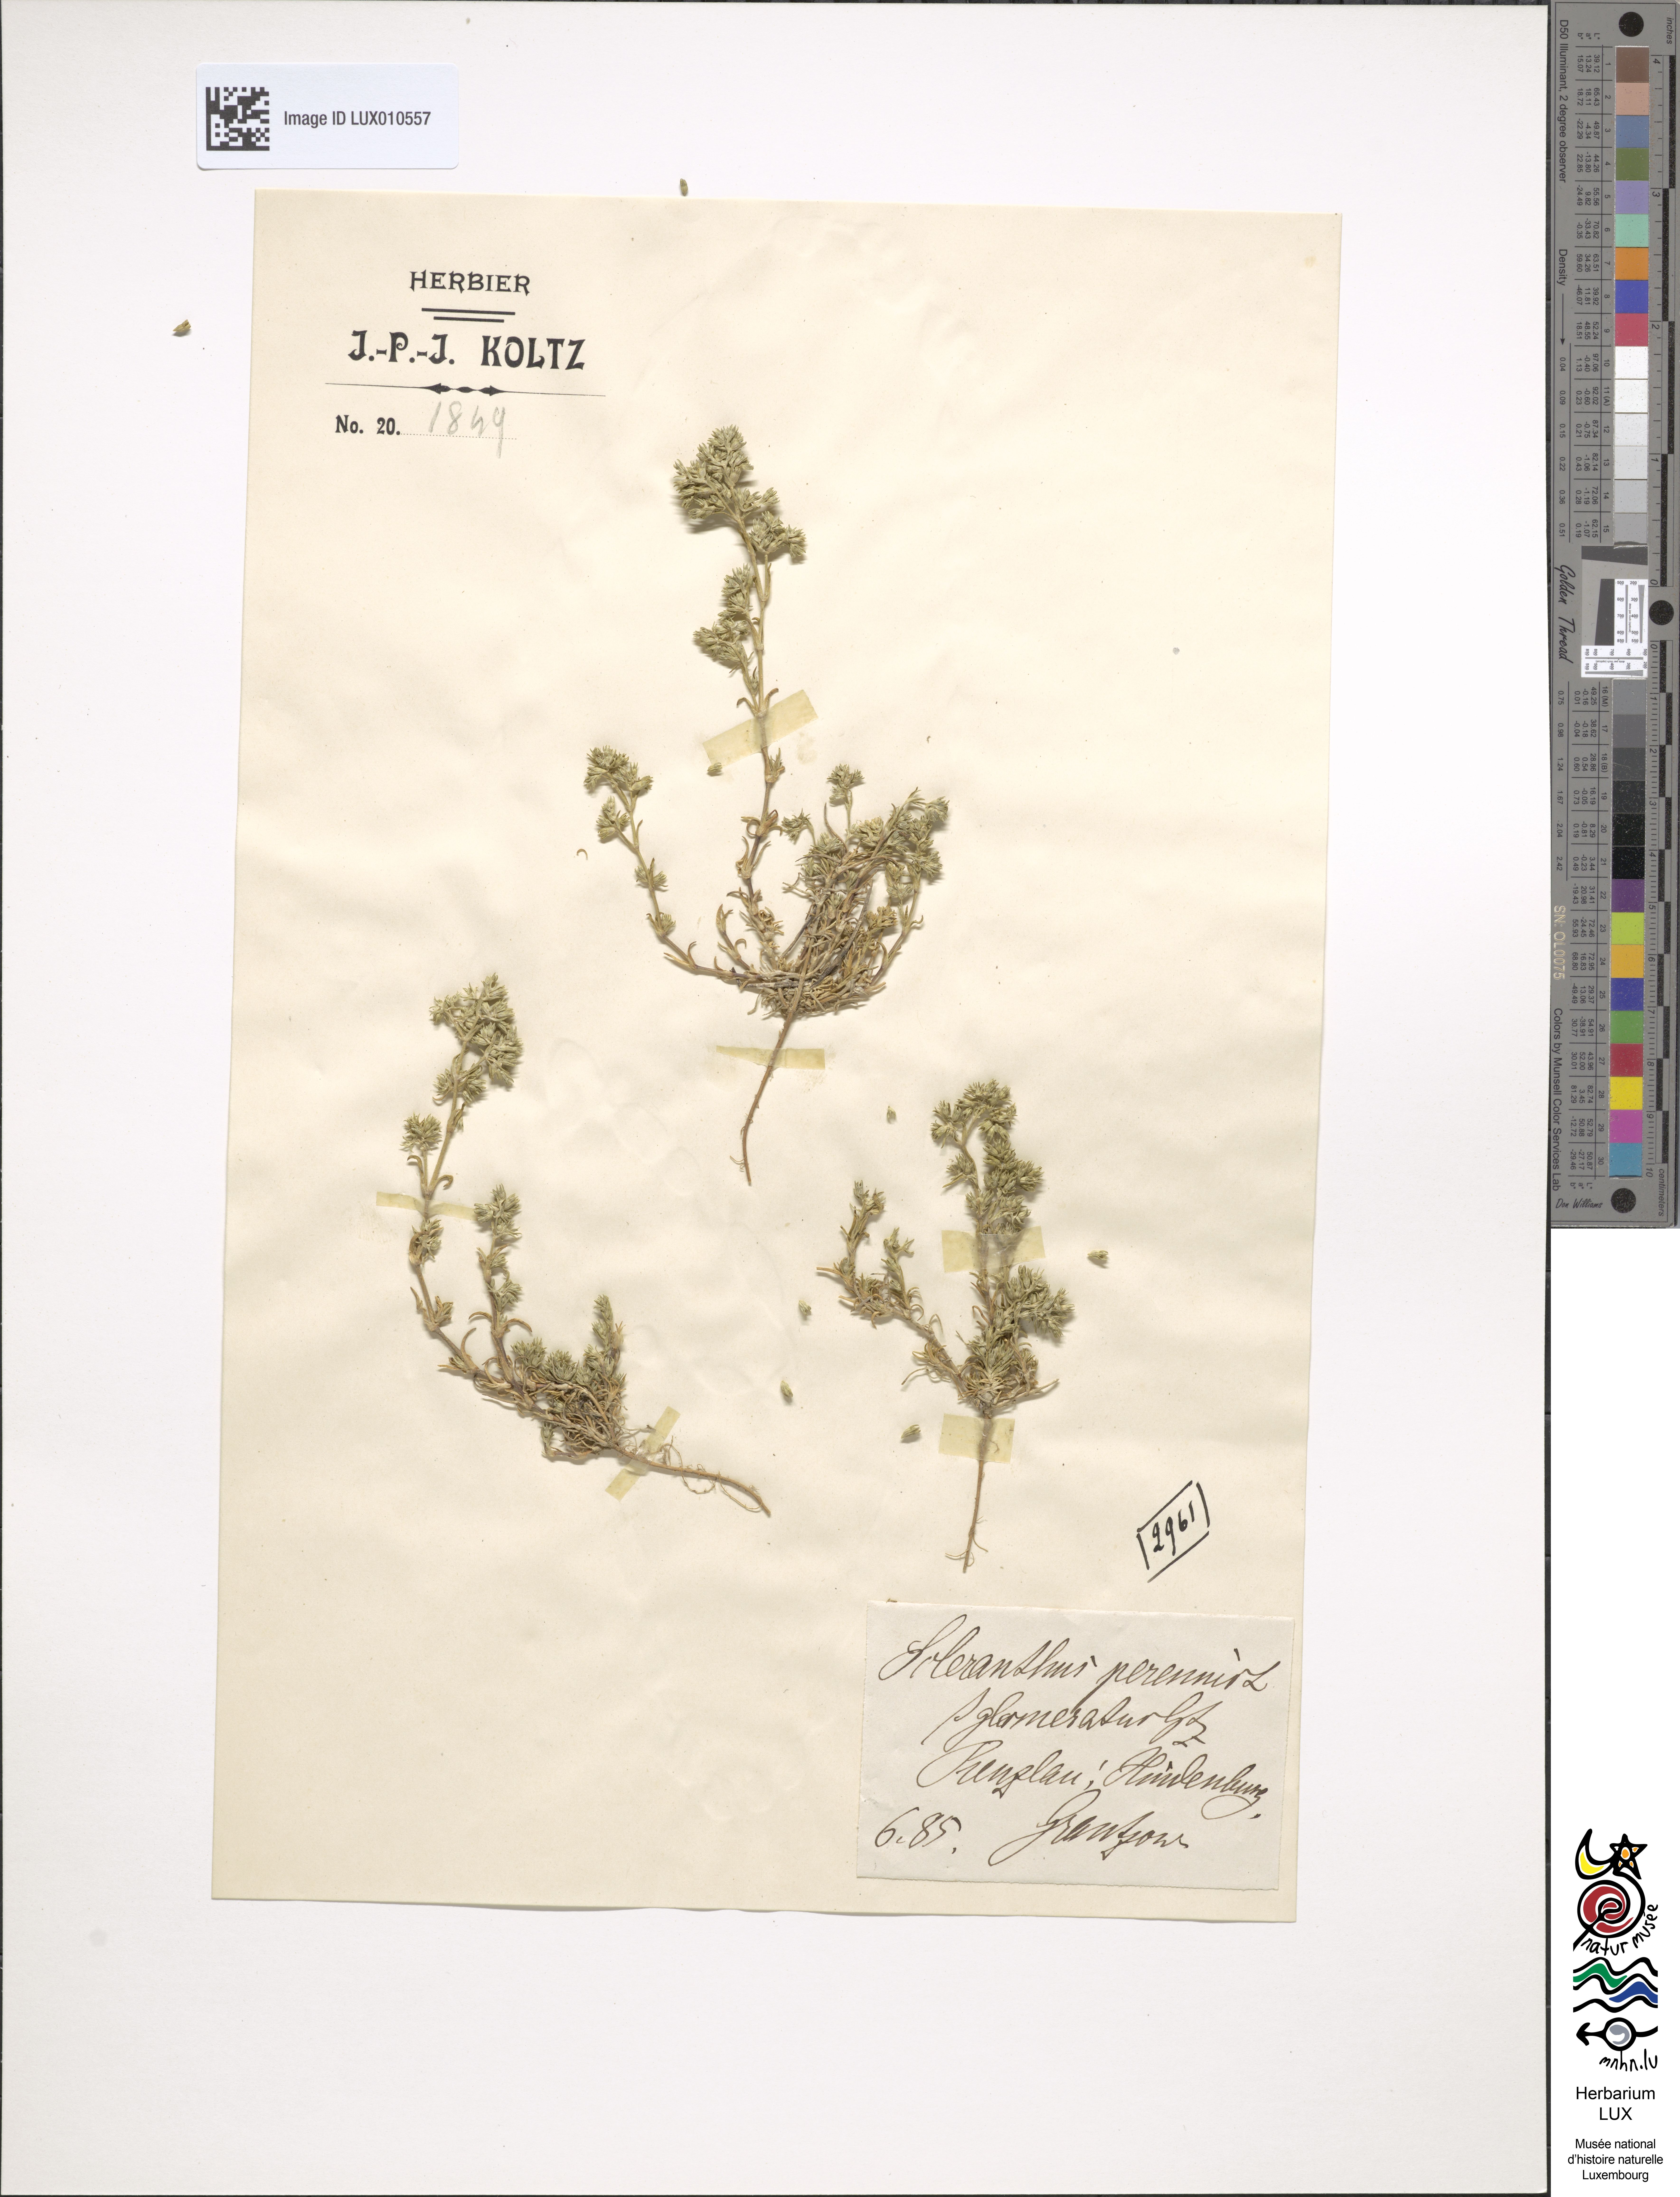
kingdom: Plantae
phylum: Tracheophyta
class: Magnoliopsida
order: Caryophyllales
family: Caryophyllaceae
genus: Scleranthus
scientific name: Scleranthus perennis
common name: Perennial knawel
